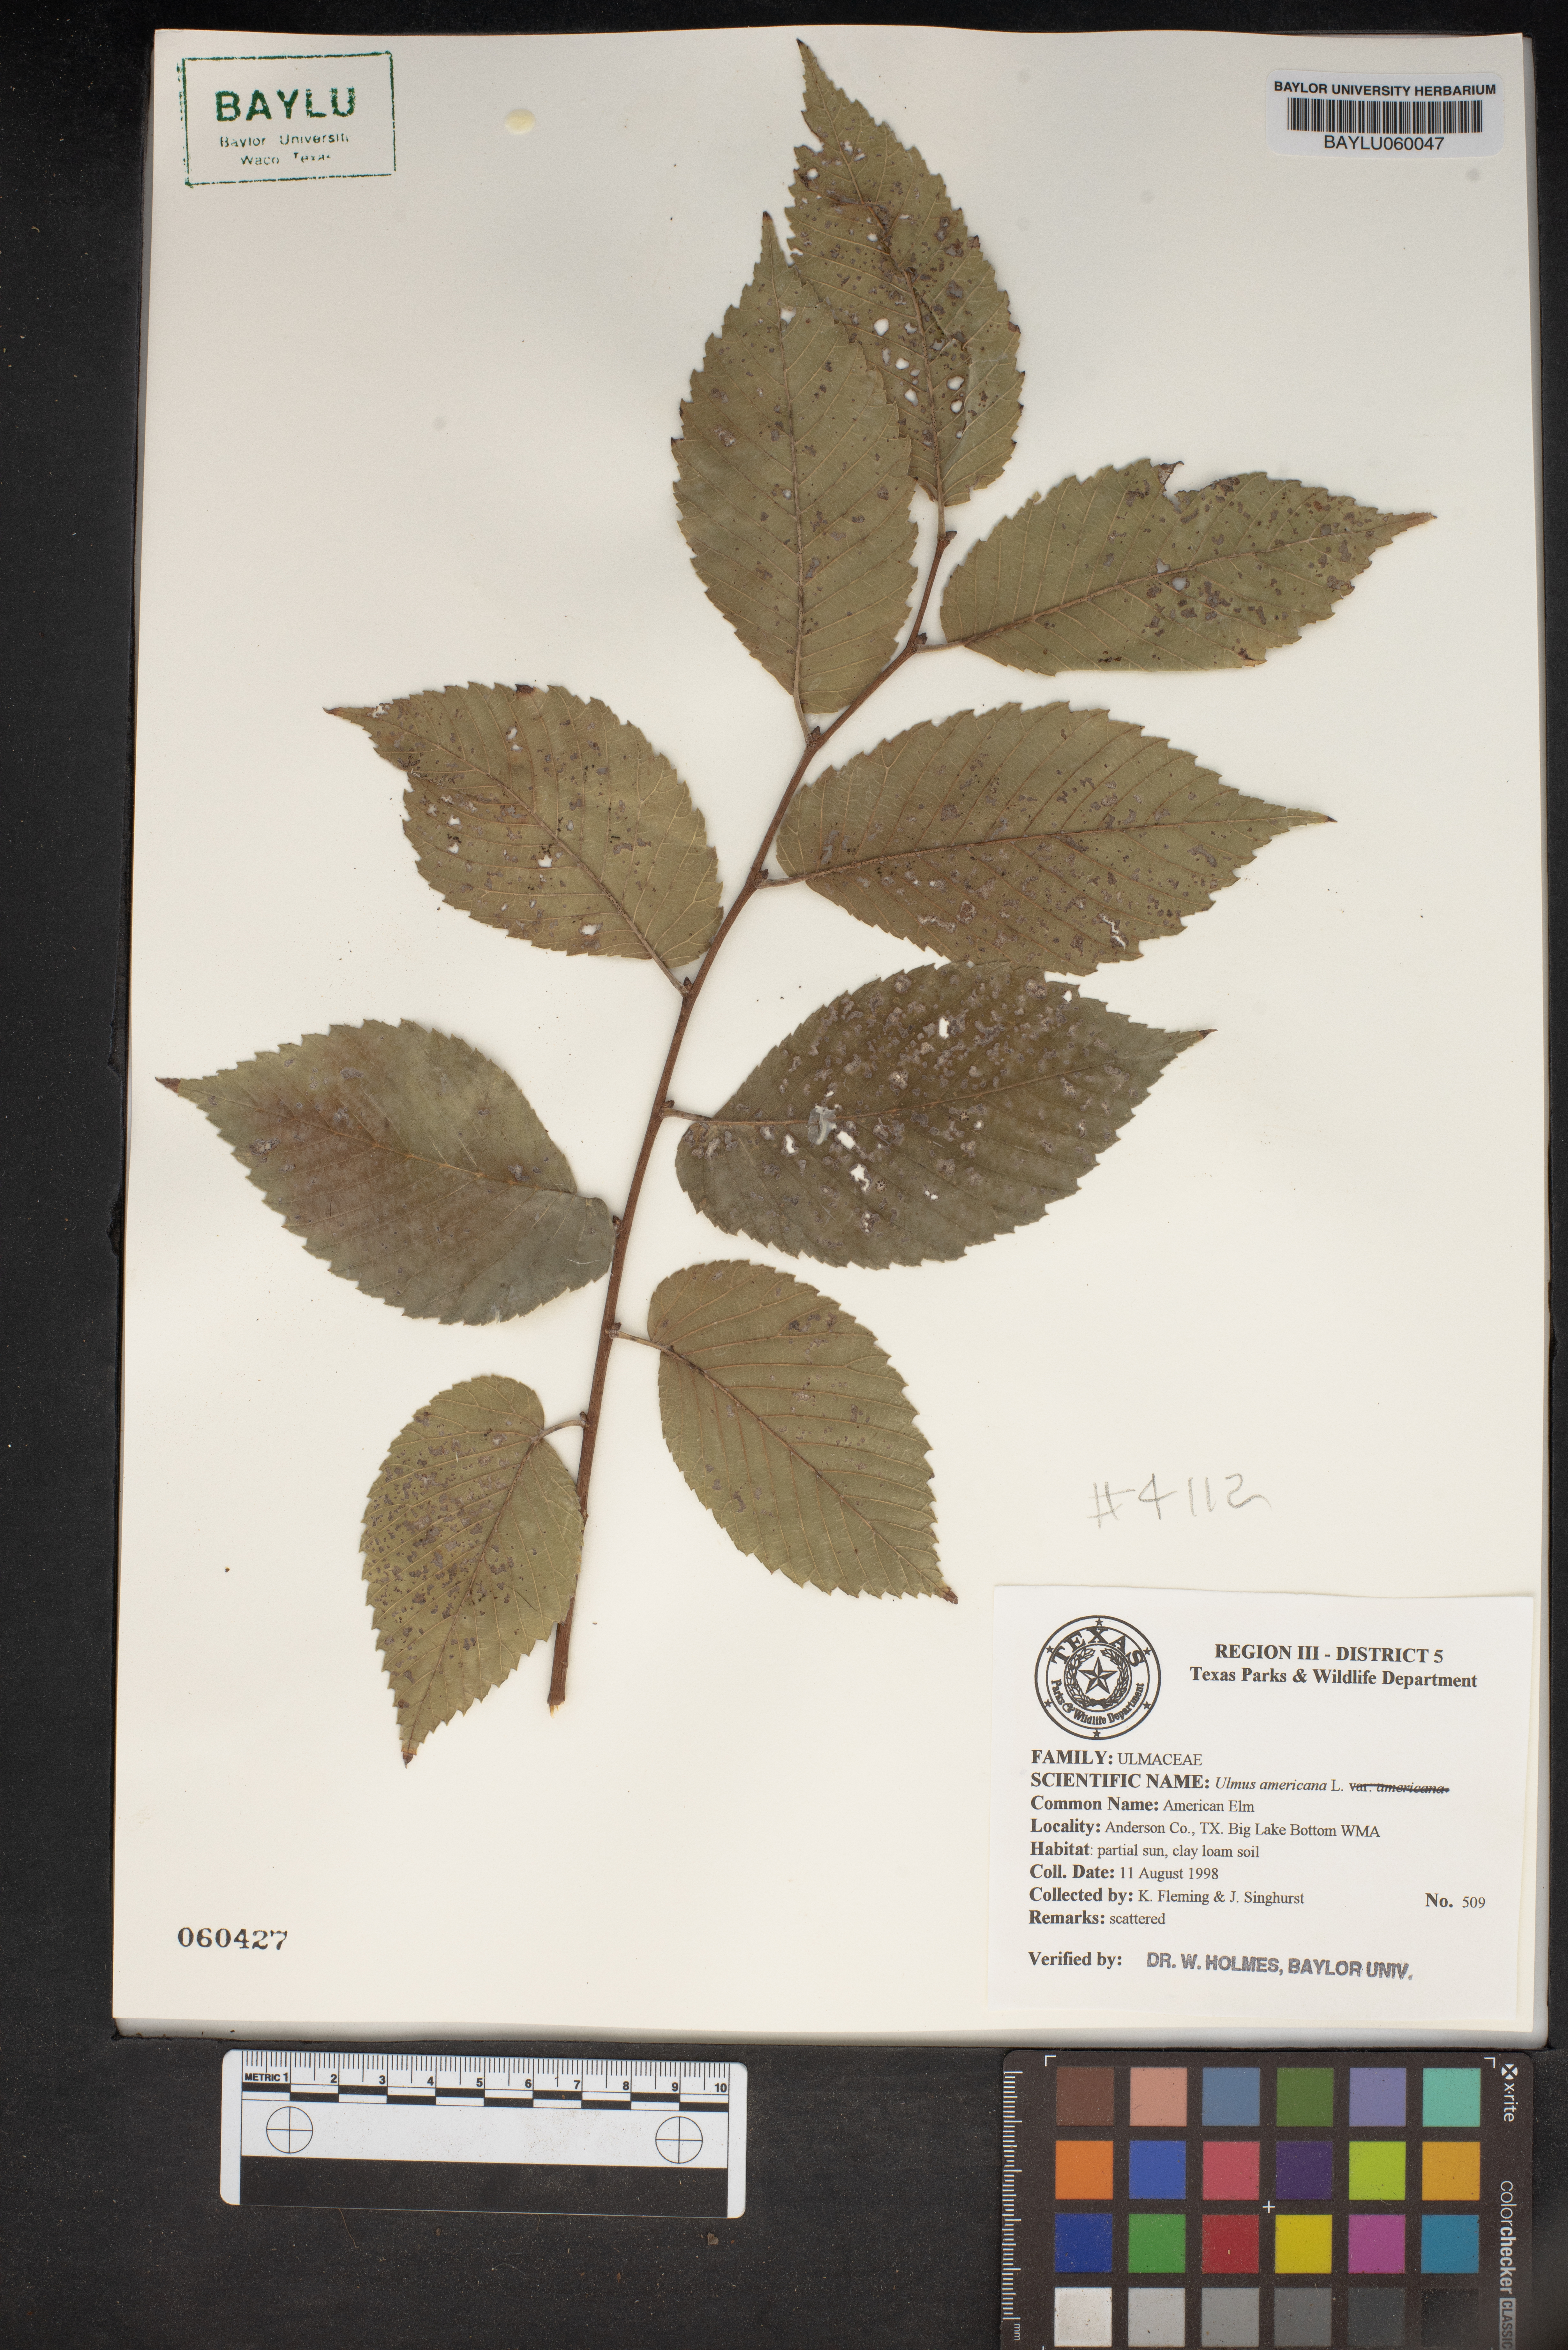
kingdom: Plantae
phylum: Tracheophyta
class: Magnoliopsida
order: Rosales
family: Ulmaceae
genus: Ulmus
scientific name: Ulmus americana
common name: American elm
